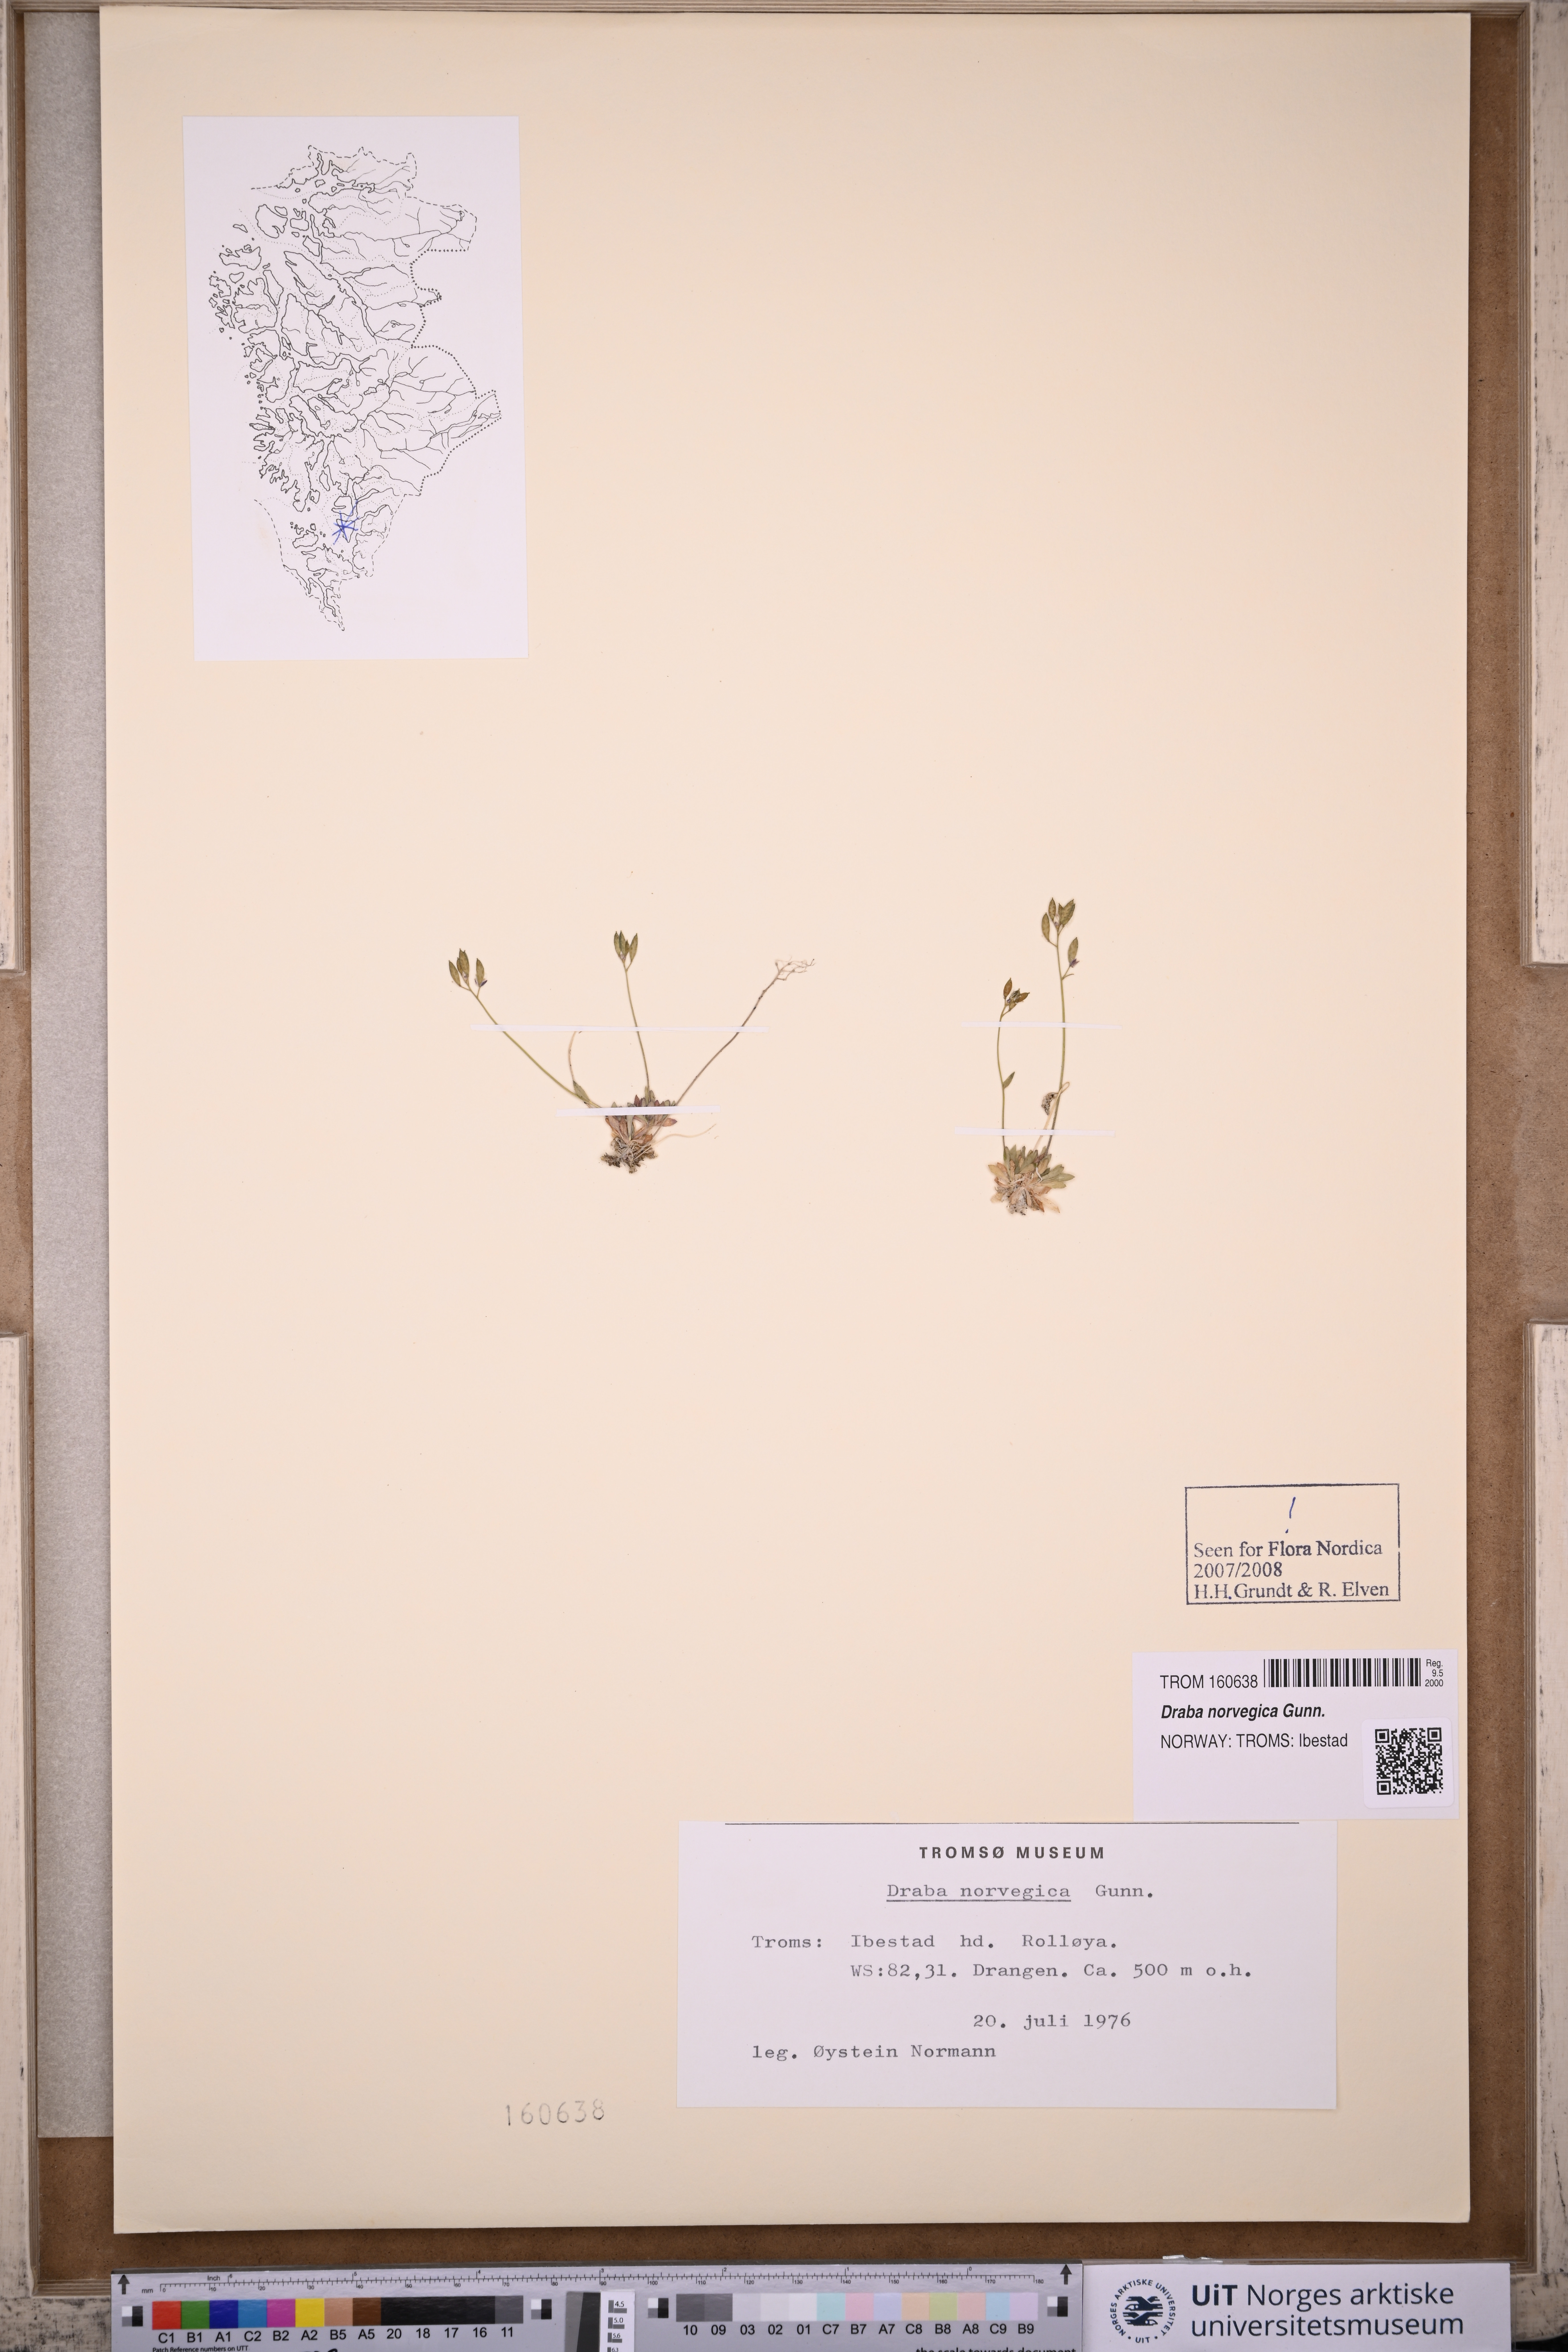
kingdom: Plantae
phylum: Tracheophyta
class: Magnoliopsida
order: Brassicales
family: Brassicaceae
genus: Draba
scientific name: Draba norvegica
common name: Rock whitlowgrass
